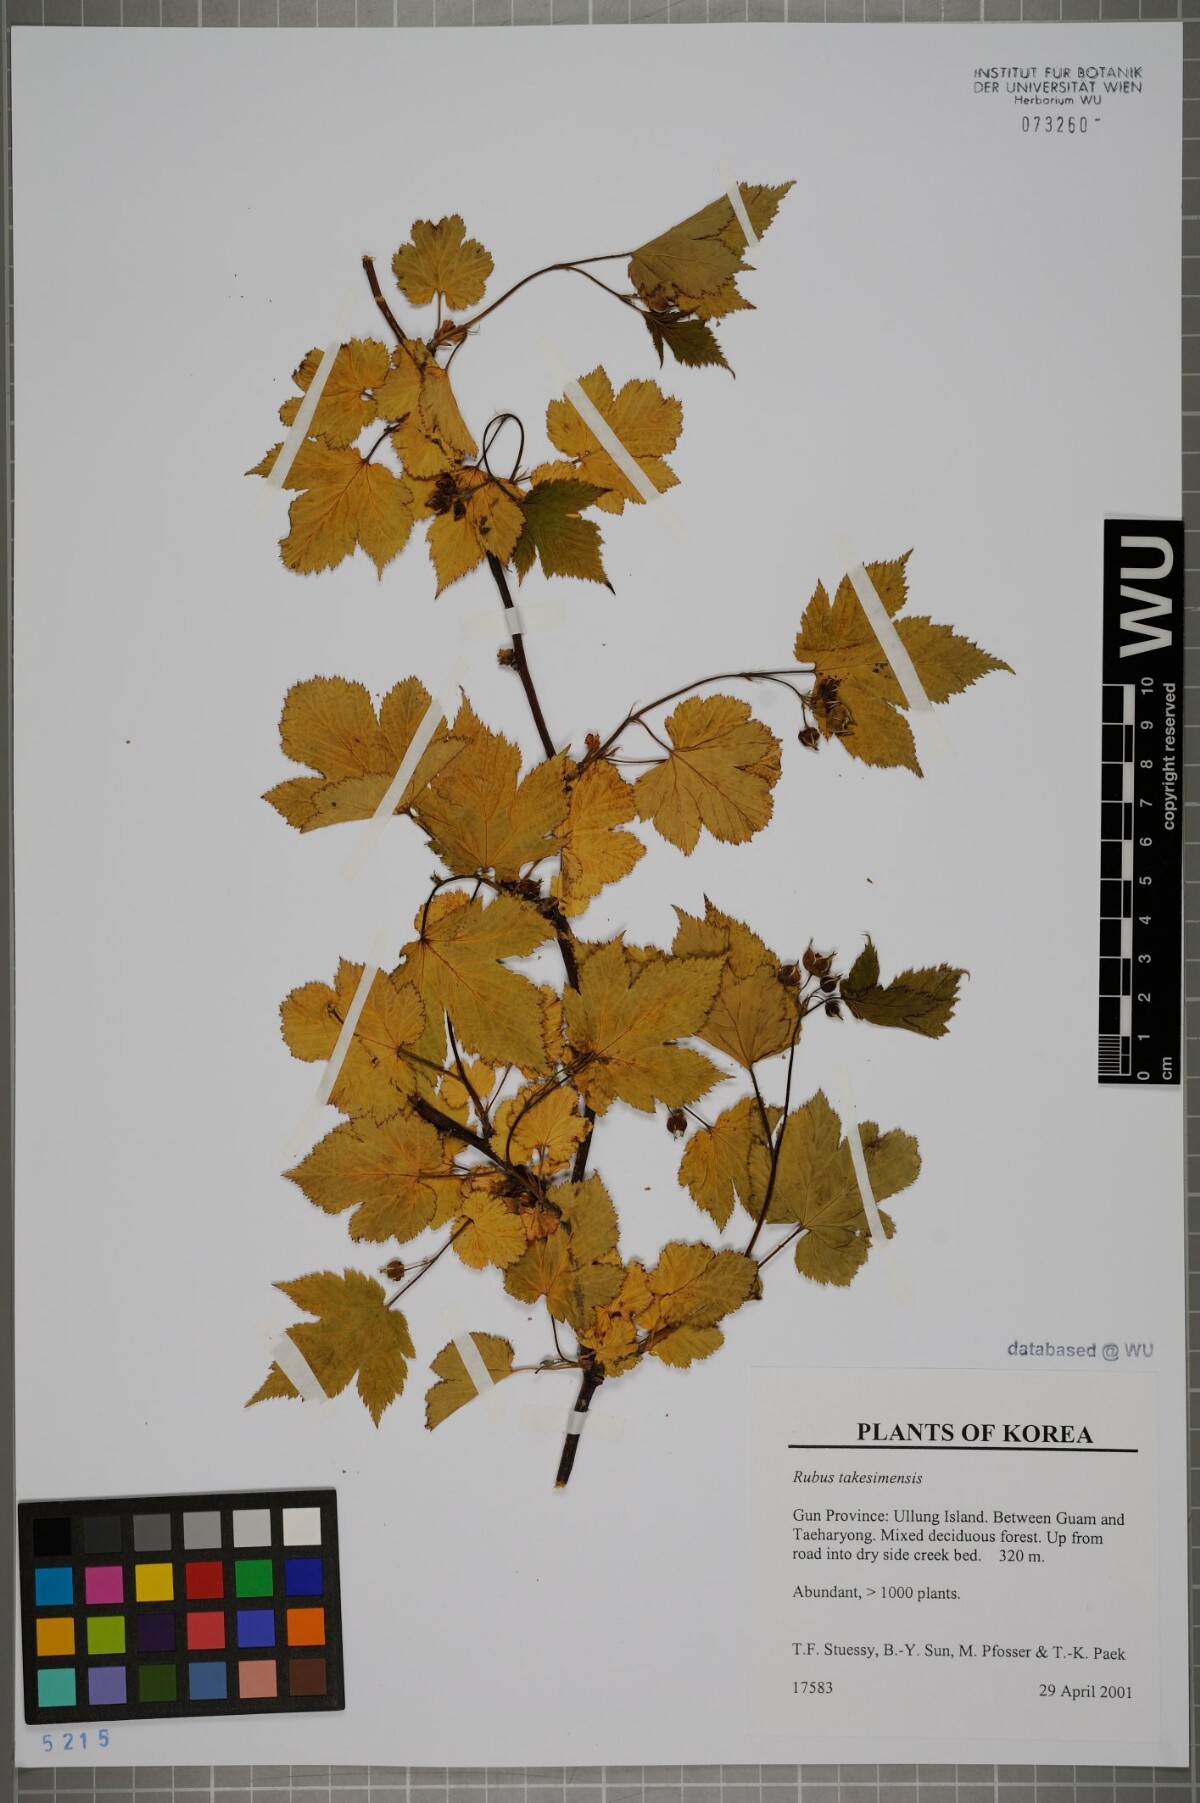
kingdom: Plantae
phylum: Tracheophyta
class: Magnoliopsida
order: Rosales
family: Rosaceae
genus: Rubus
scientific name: Rubus crataegifolius
